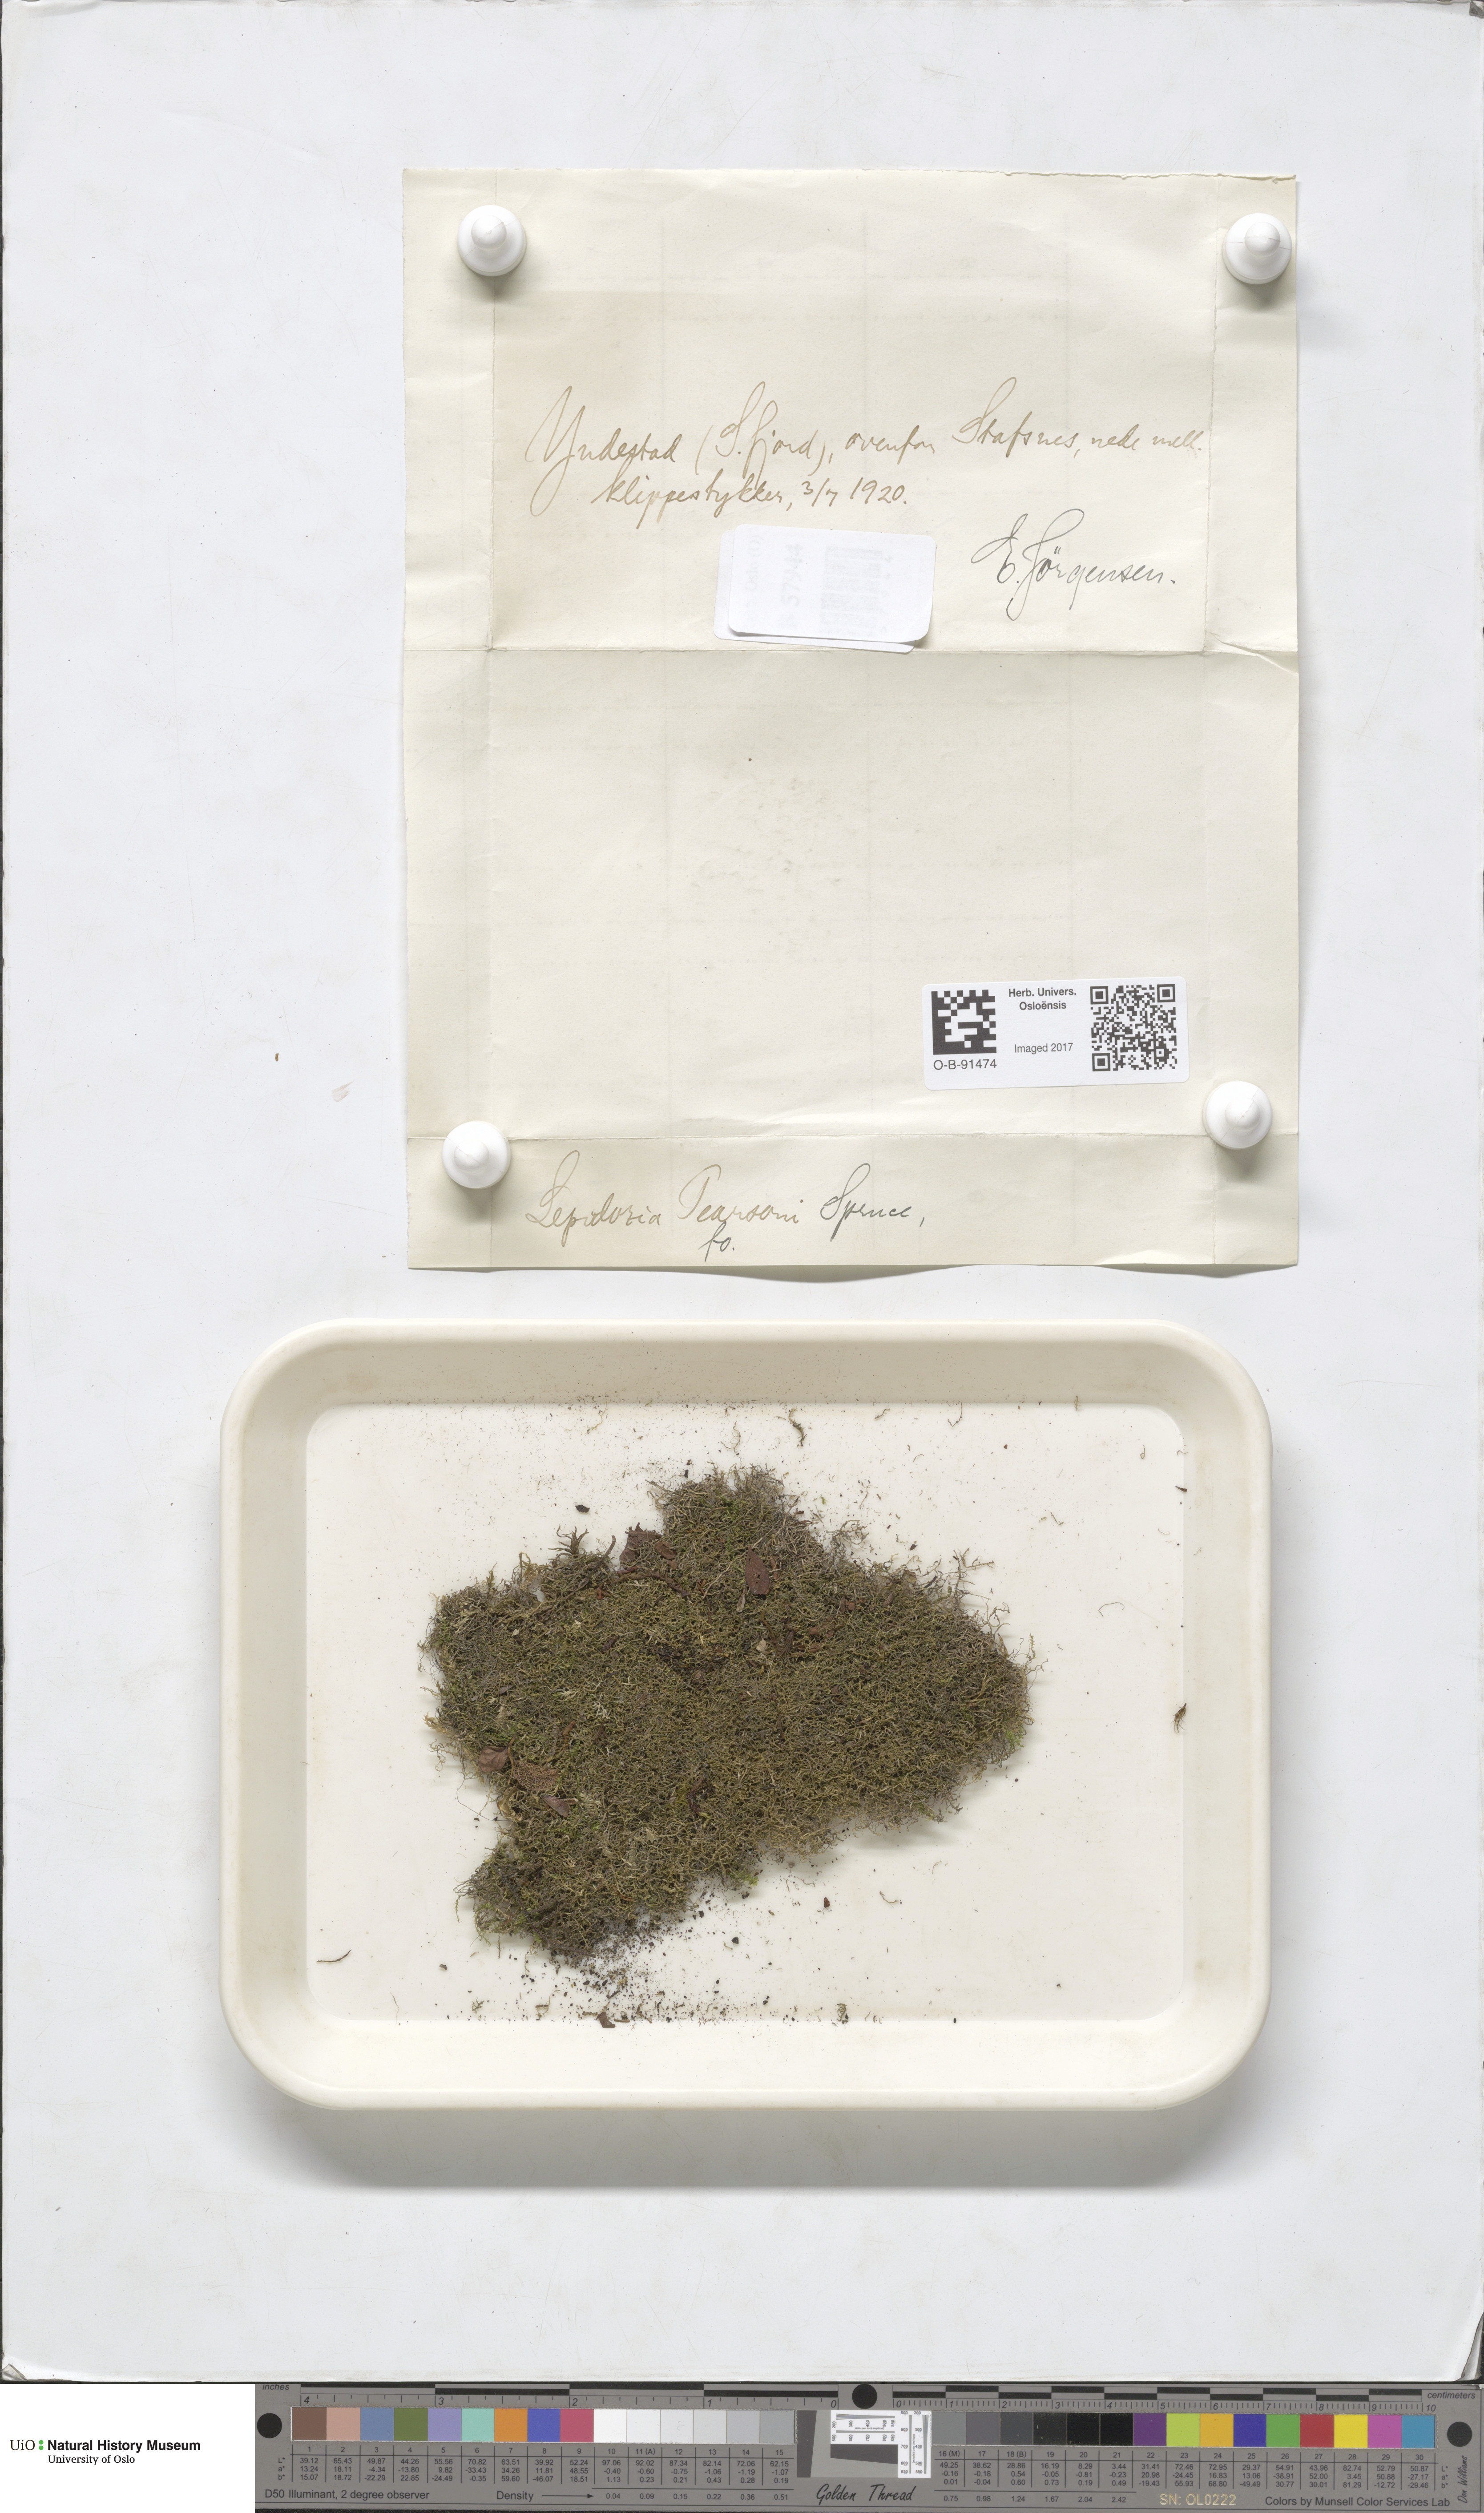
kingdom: Plantae
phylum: Marchantiophyta
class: Jungermanniopsida
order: Jungermanniales
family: Lepidoziaceae
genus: Lepidozia
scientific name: Lepidozia pearsonii
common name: Pearson's fingerwort
